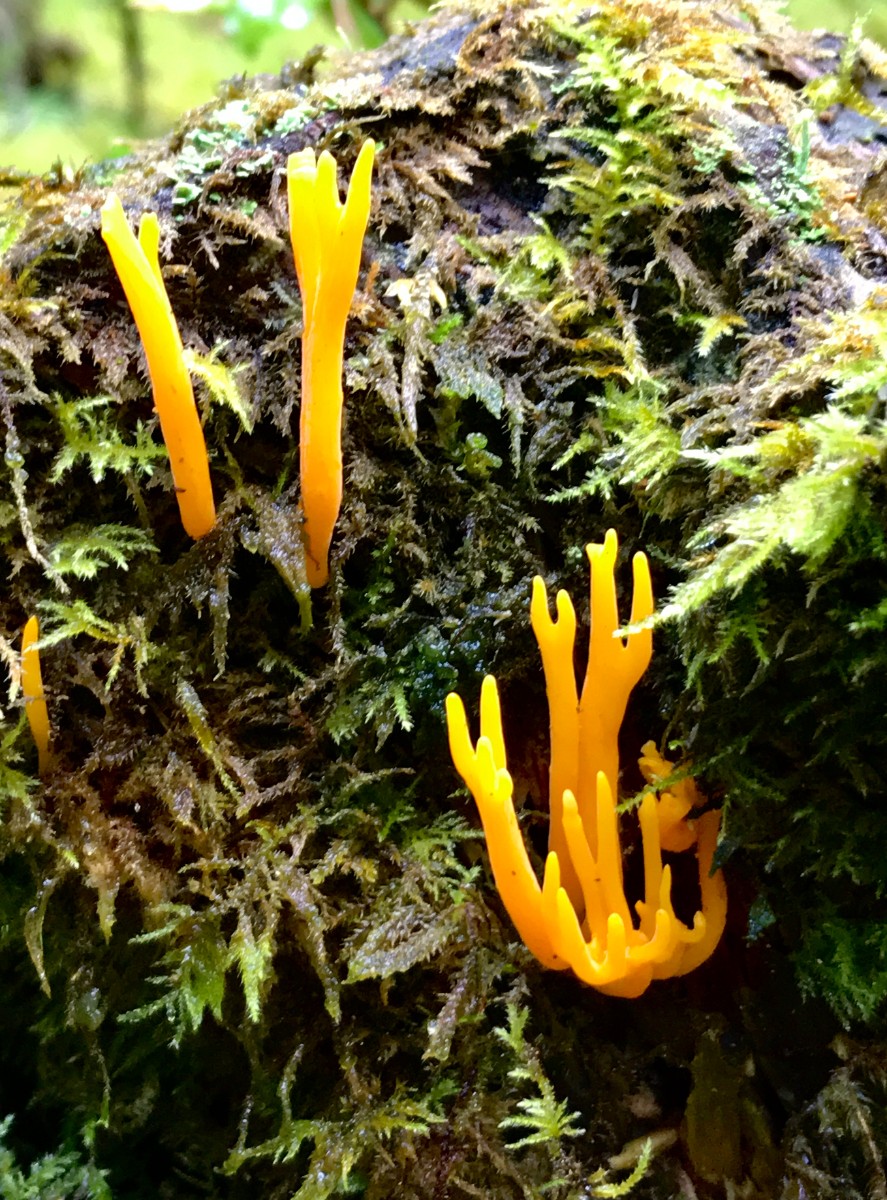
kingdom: Fungi
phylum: Basidiomycota
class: Dacrymycetes
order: Dacrymycetales
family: Dacrymycetaceae
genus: Calocera
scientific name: Calocera viscosa
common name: almindelig guldgaffel
